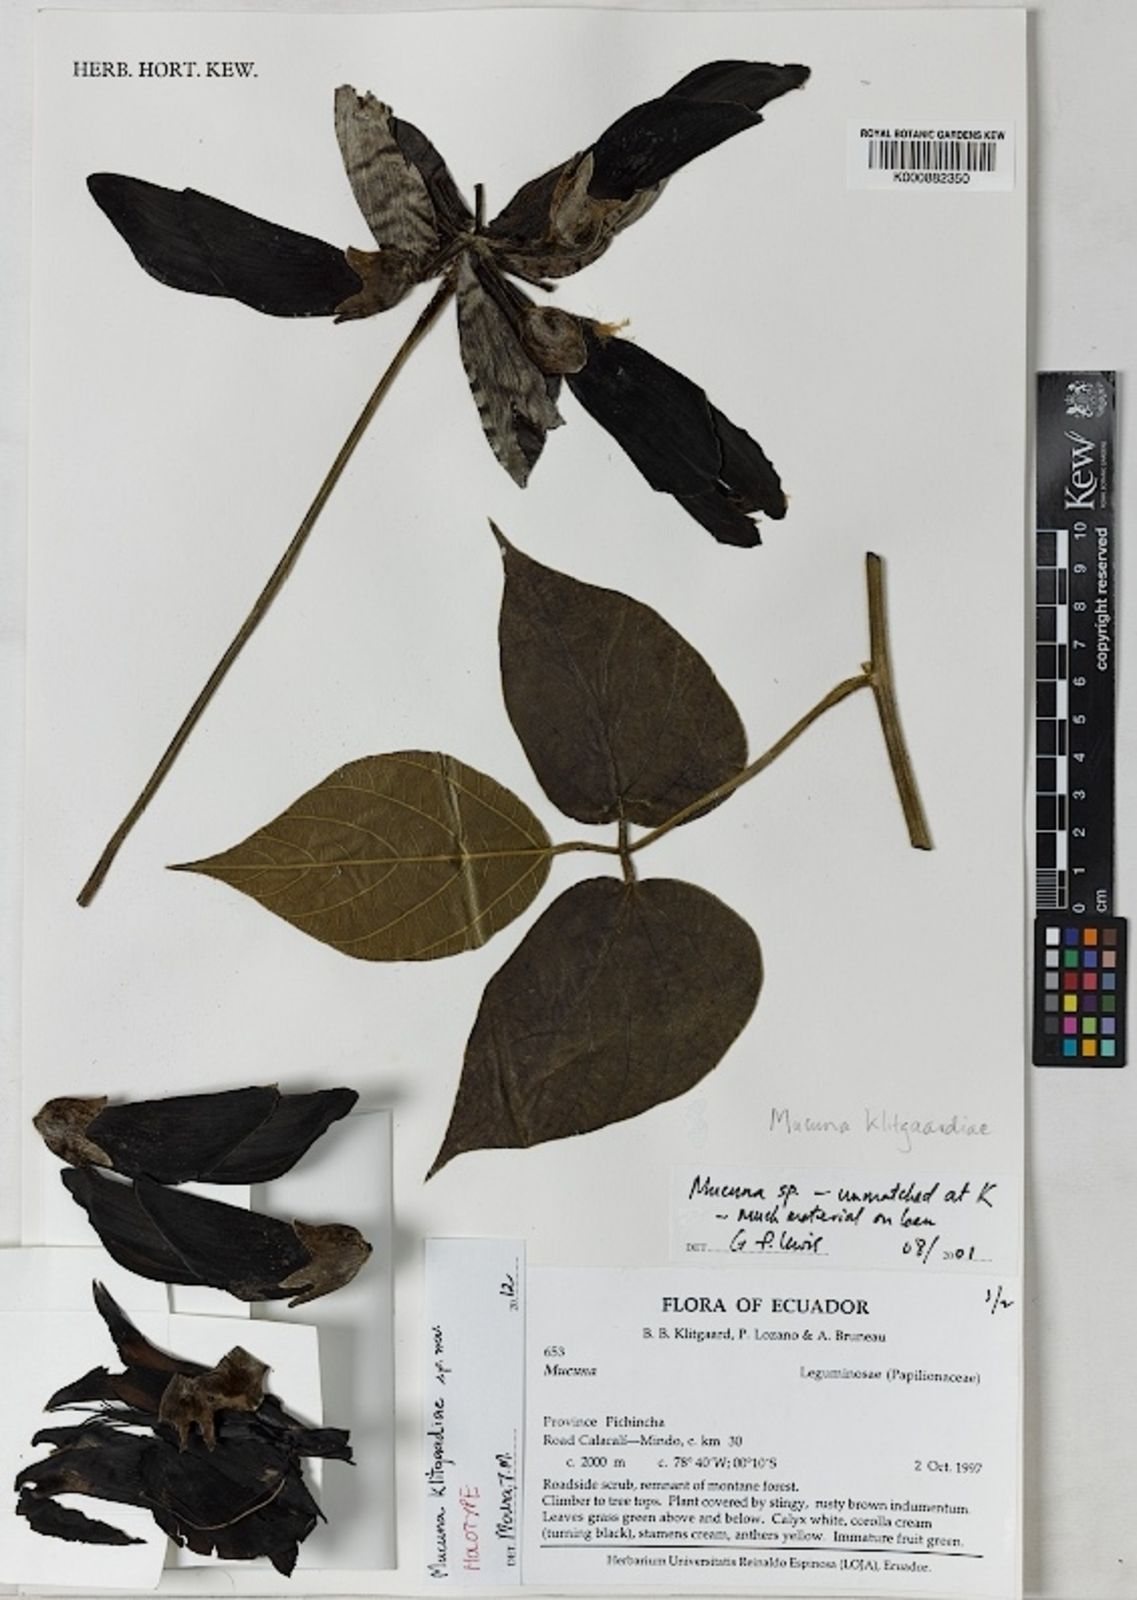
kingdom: Plantae
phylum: Tracheophyta
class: Magnoliopsida
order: Fabales
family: Fabaceae
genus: Mucuna
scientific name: Mucuna
